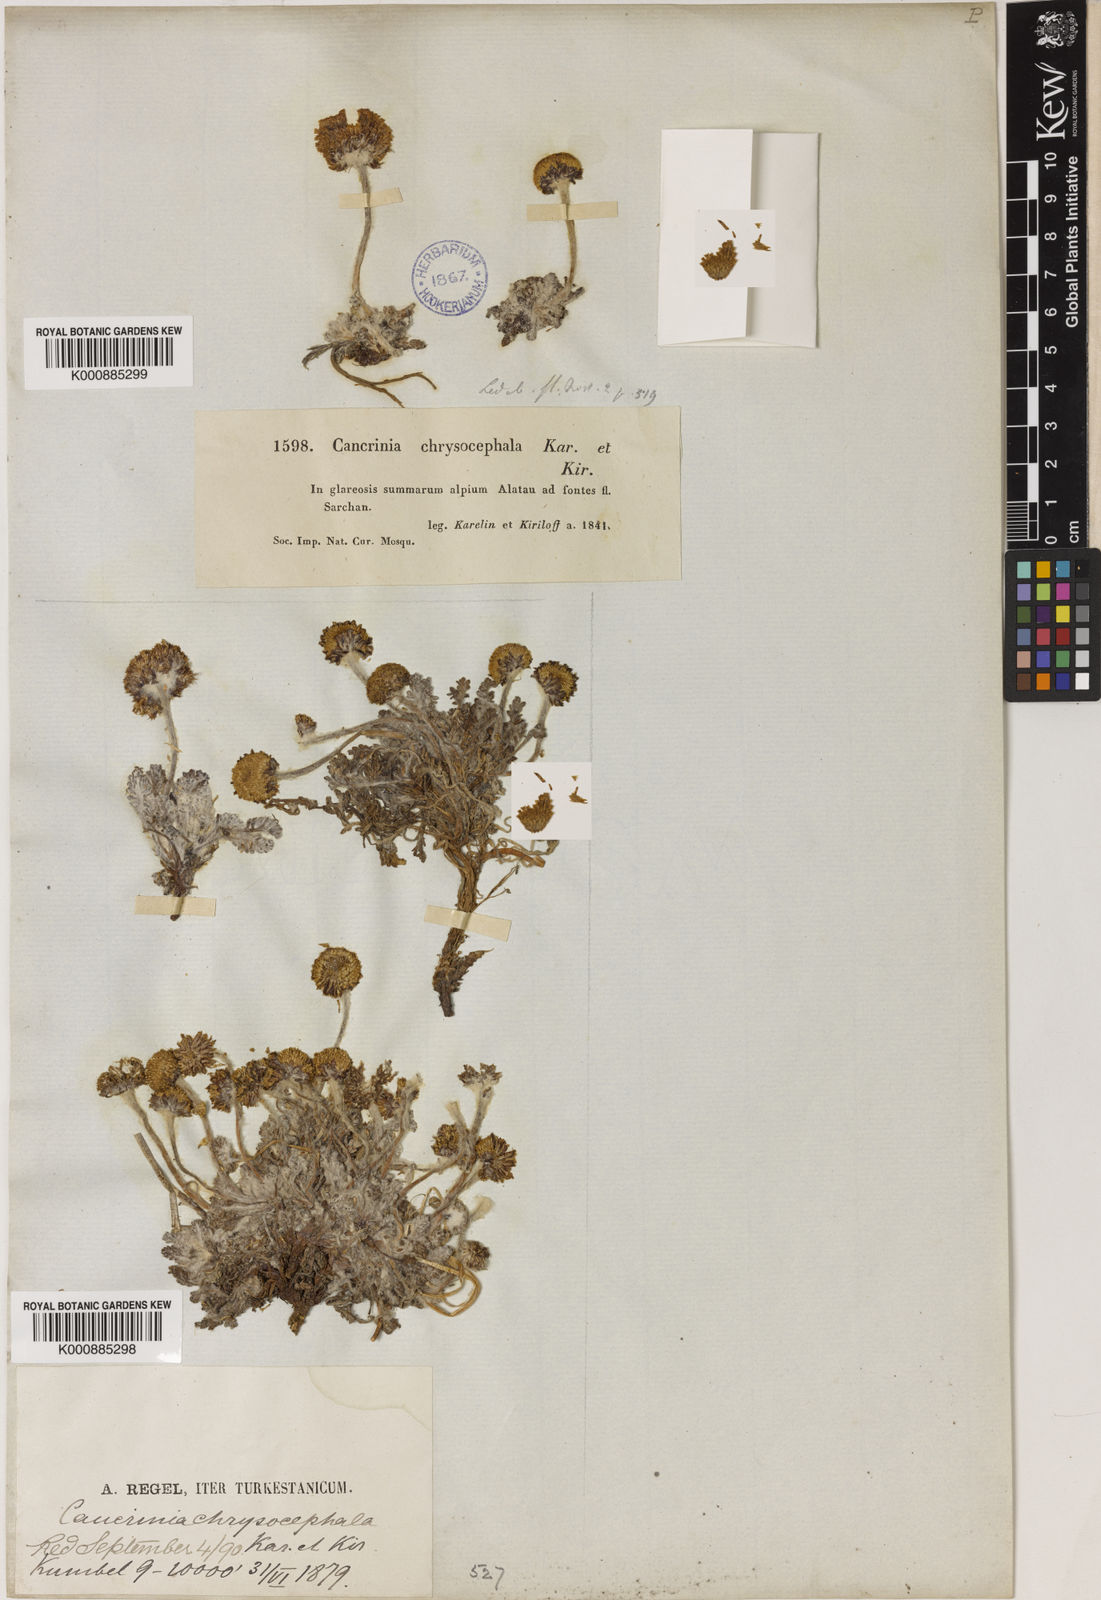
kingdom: Plantae
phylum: Tracheophyta
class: Magnoliopsida
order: Asterales
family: Asteraceae
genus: Cancrinia
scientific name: Cancrinia chrysocephala
